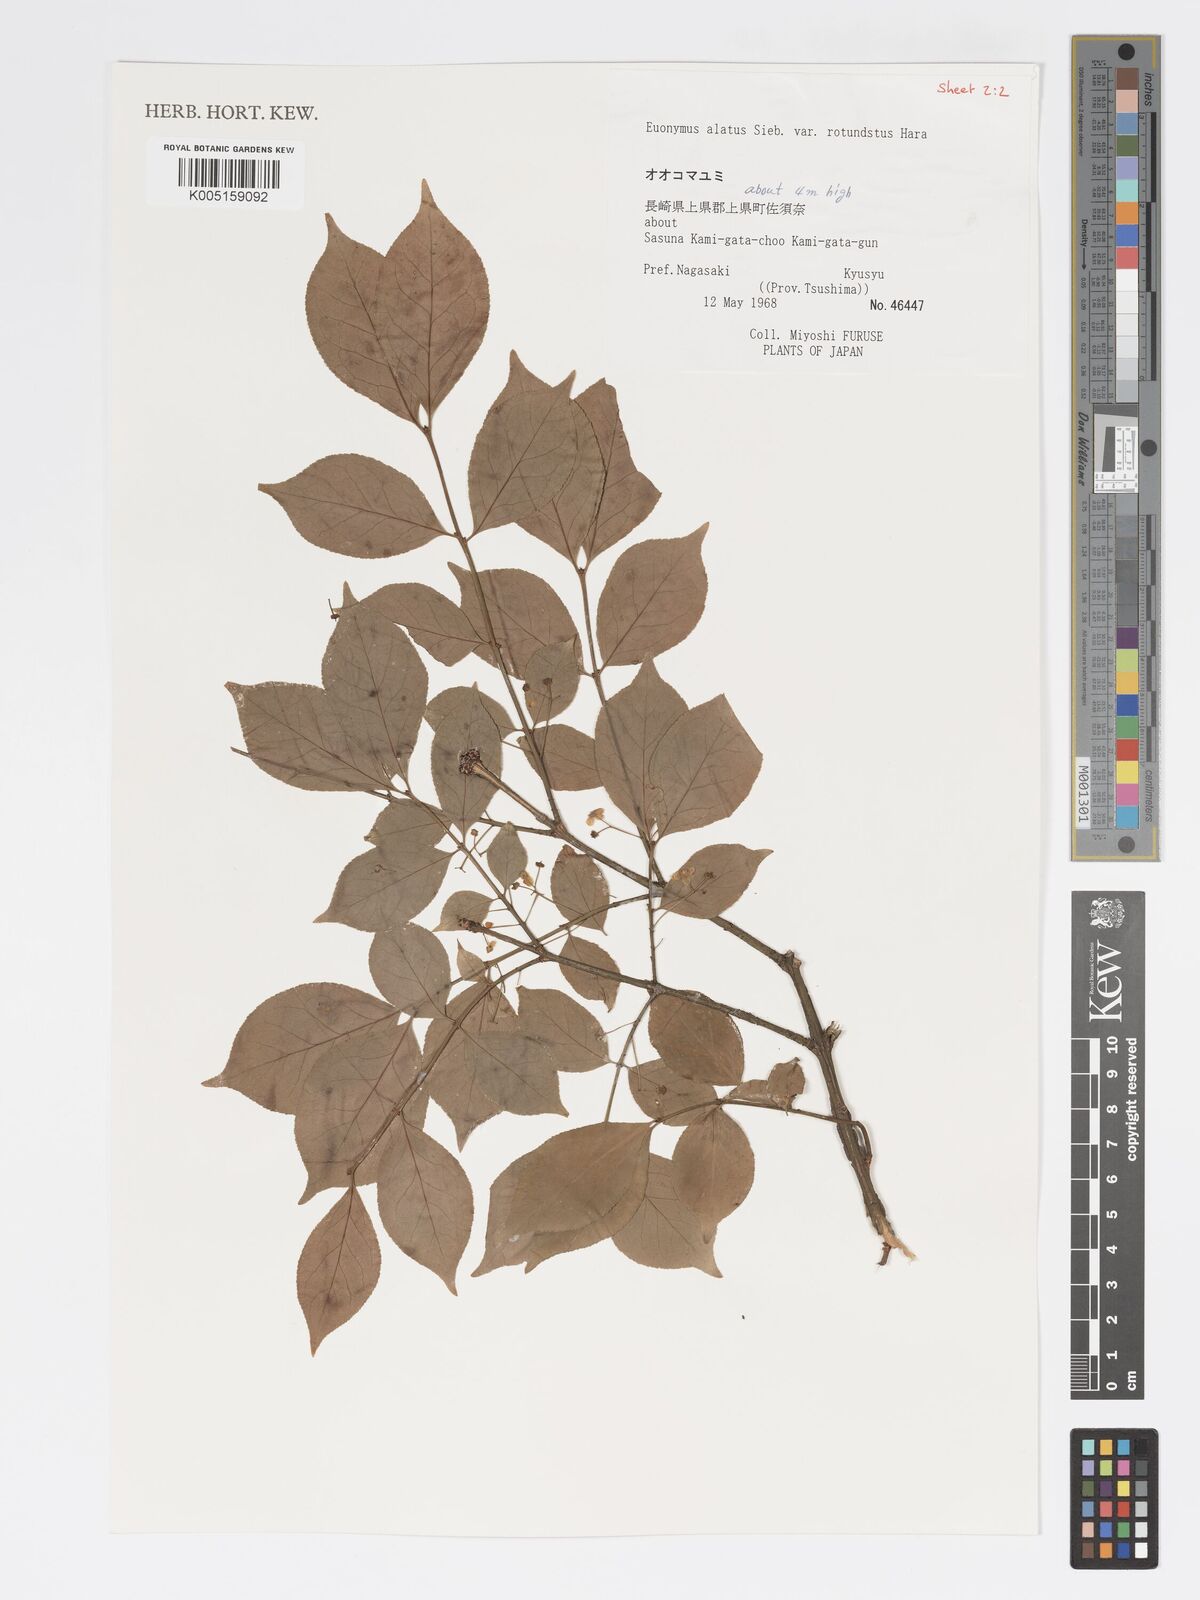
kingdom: Plantae
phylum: Tracheophyta
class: Magnoliopsida
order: Celastrales
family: Celastraceae
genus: Euonymus
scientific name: Euonymus
